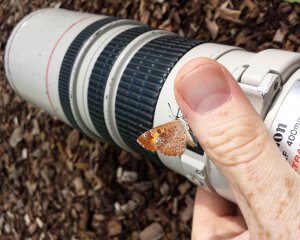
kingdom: Animalia
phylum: Arthropoda
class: Insecta
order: Lepidoptera
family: Lycaenidae
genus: Feniseca
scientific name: Feniseca tarquinius
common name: Harvester
